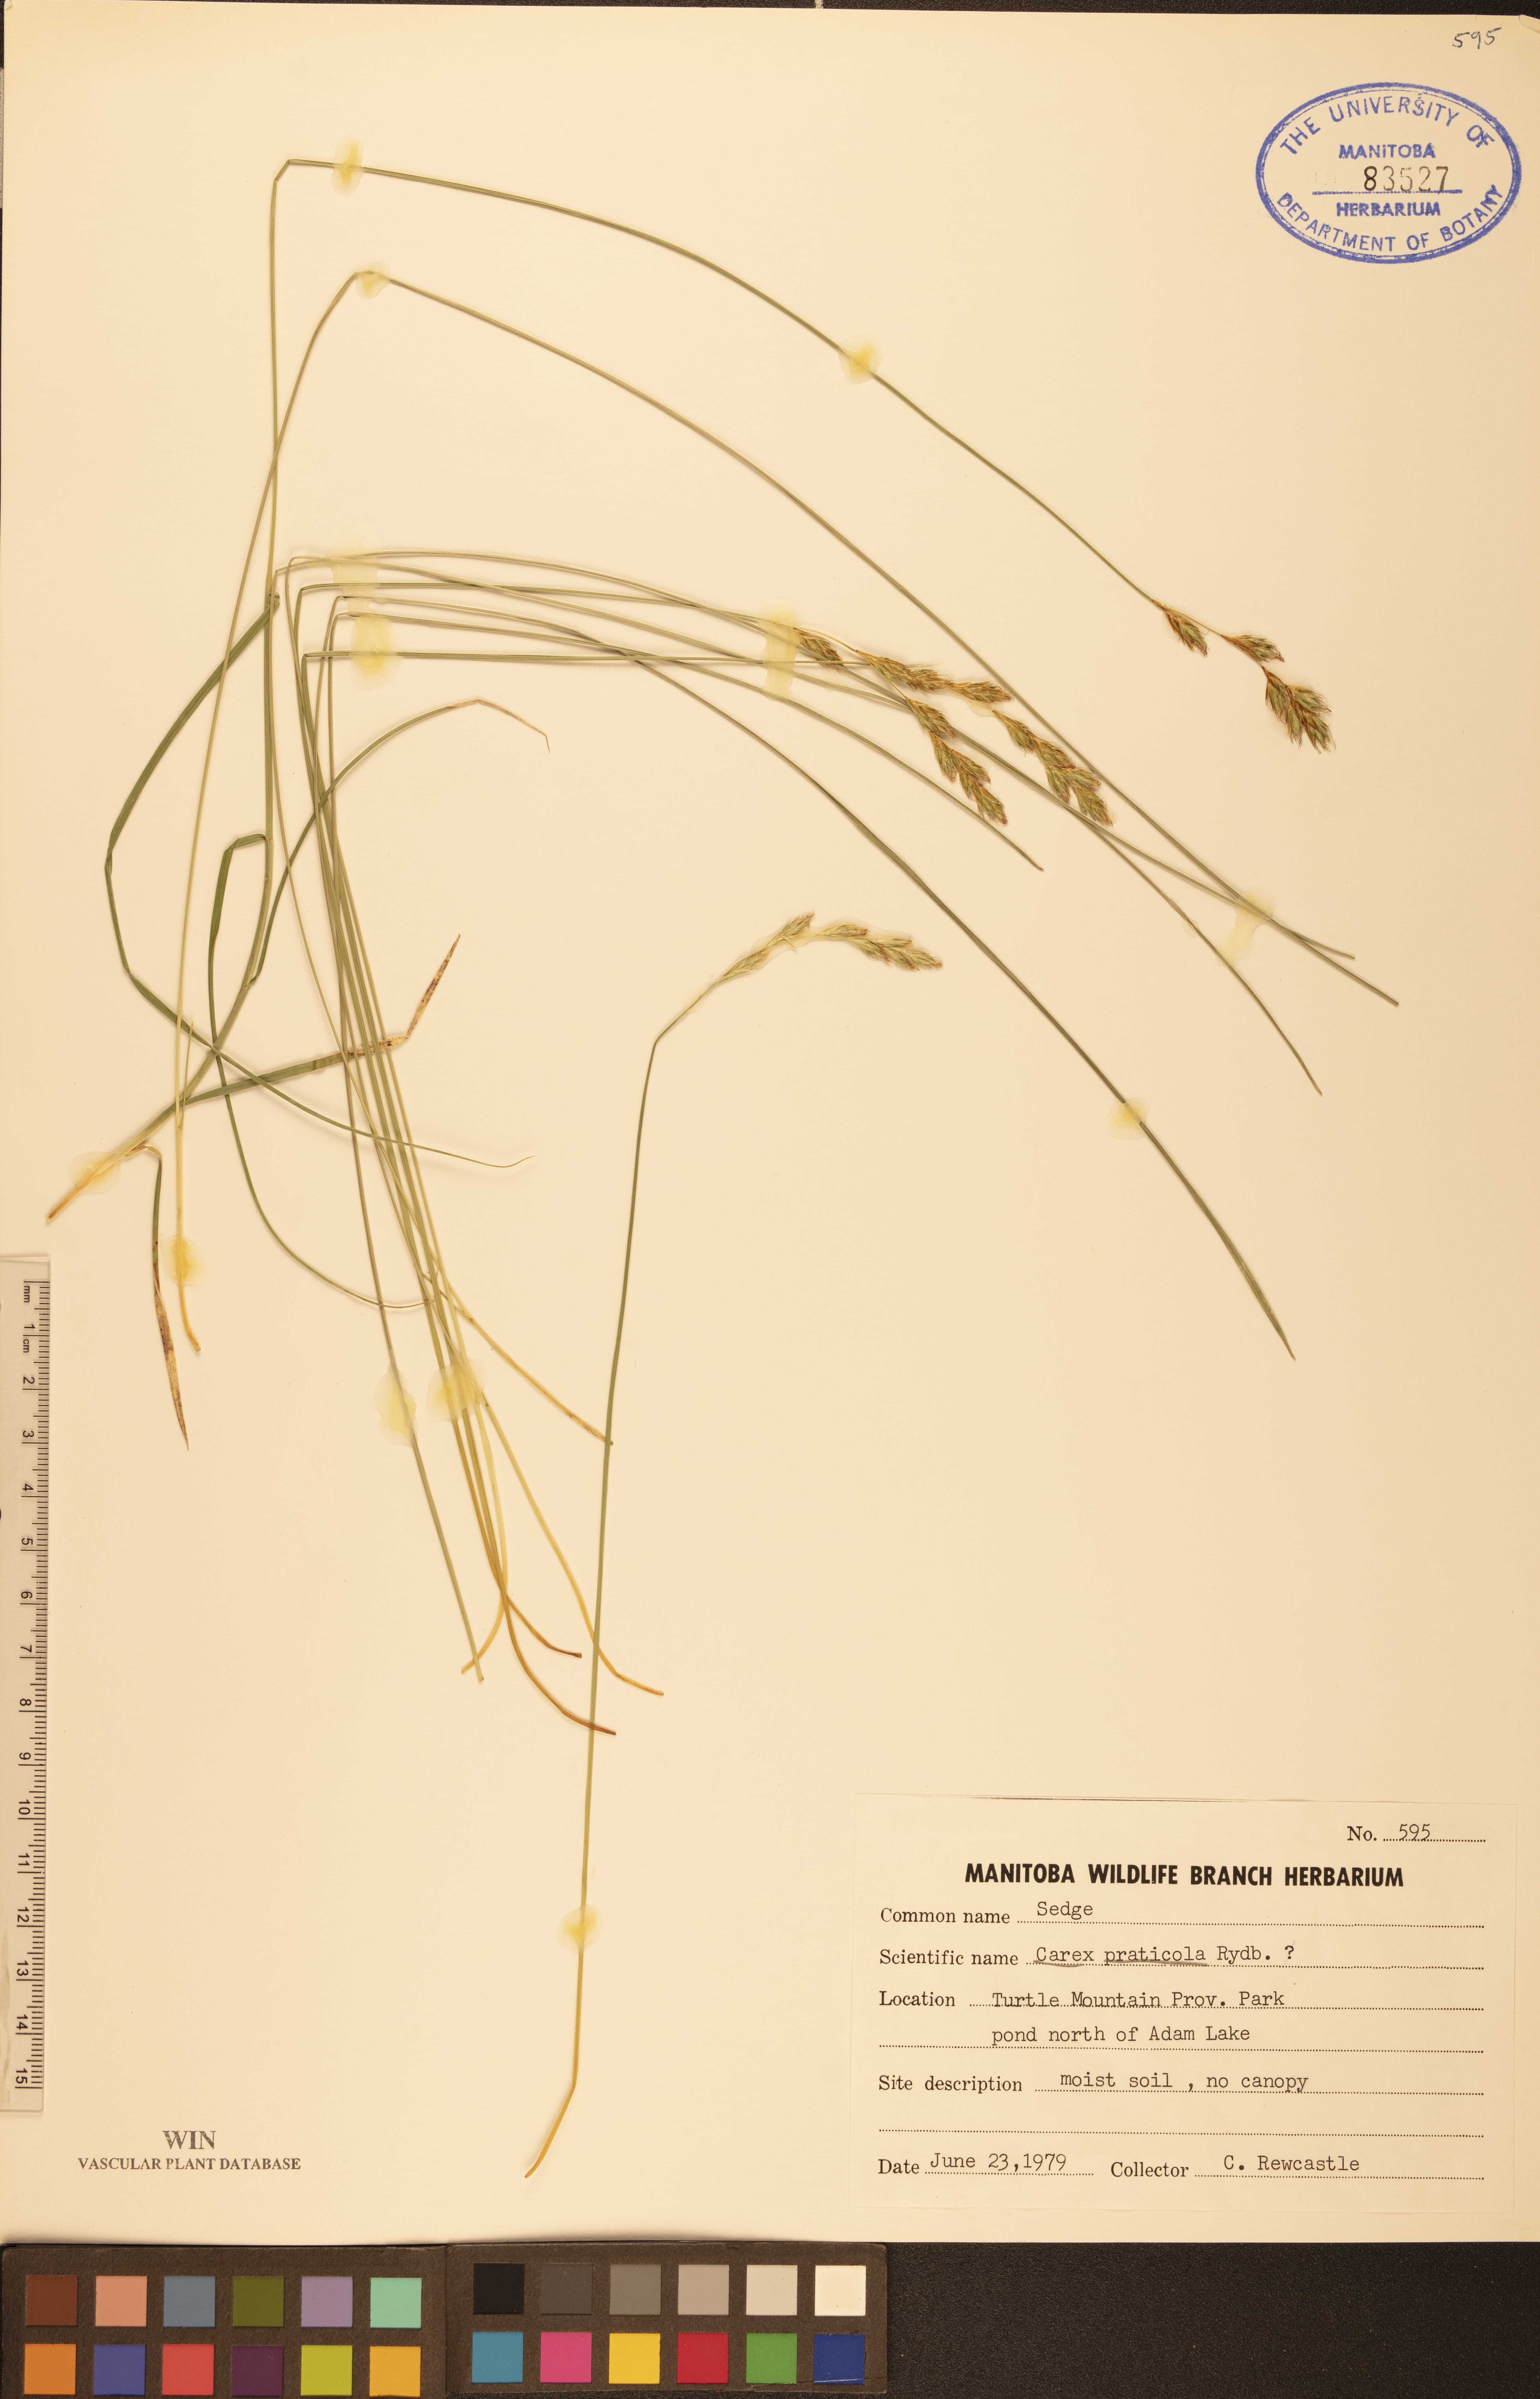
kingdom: Plantae
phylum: Tracheophyta
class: Liliopsida
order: Poales
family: Cyperaceae
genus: Carex
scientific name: Carex praticola
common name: Large-fruited oval sedge
